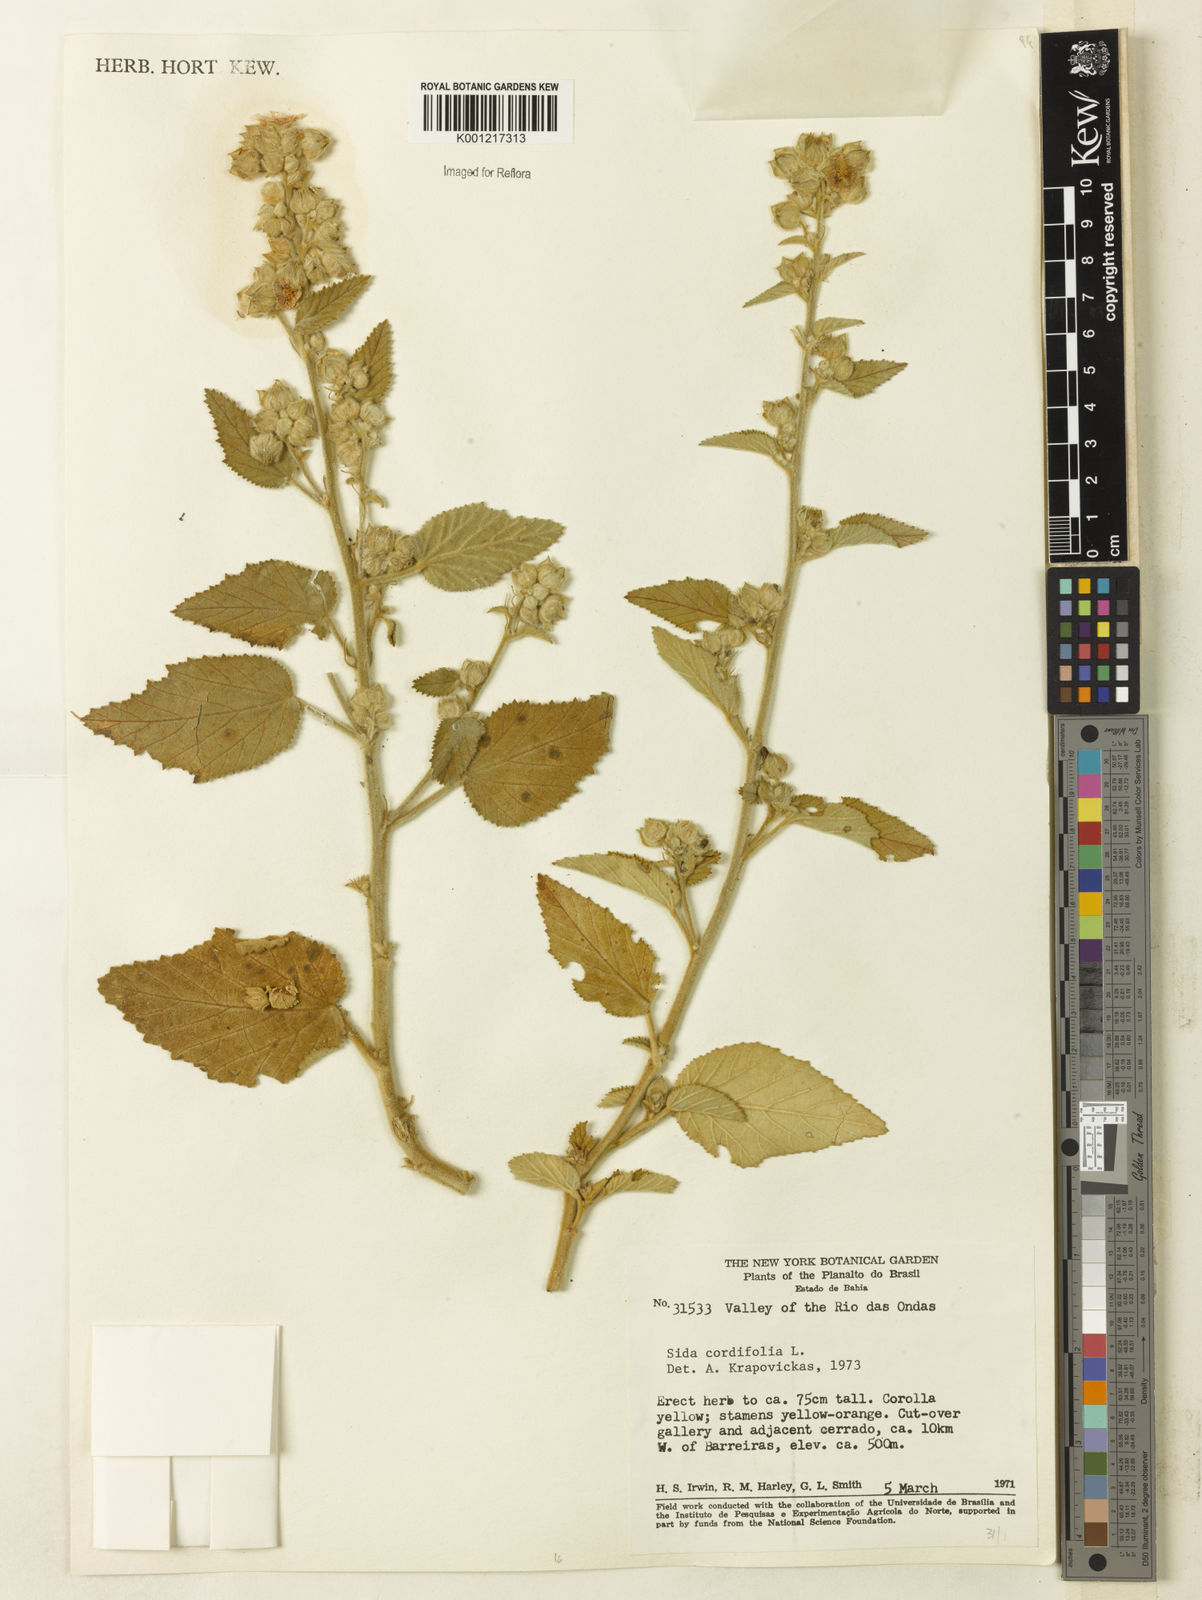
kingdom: Plantae
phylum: Tracheophyta
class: Magnoliopsida
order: Malvales
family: Malvaceae
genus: Sida
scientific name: Sida cordifolia
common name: Ilima
